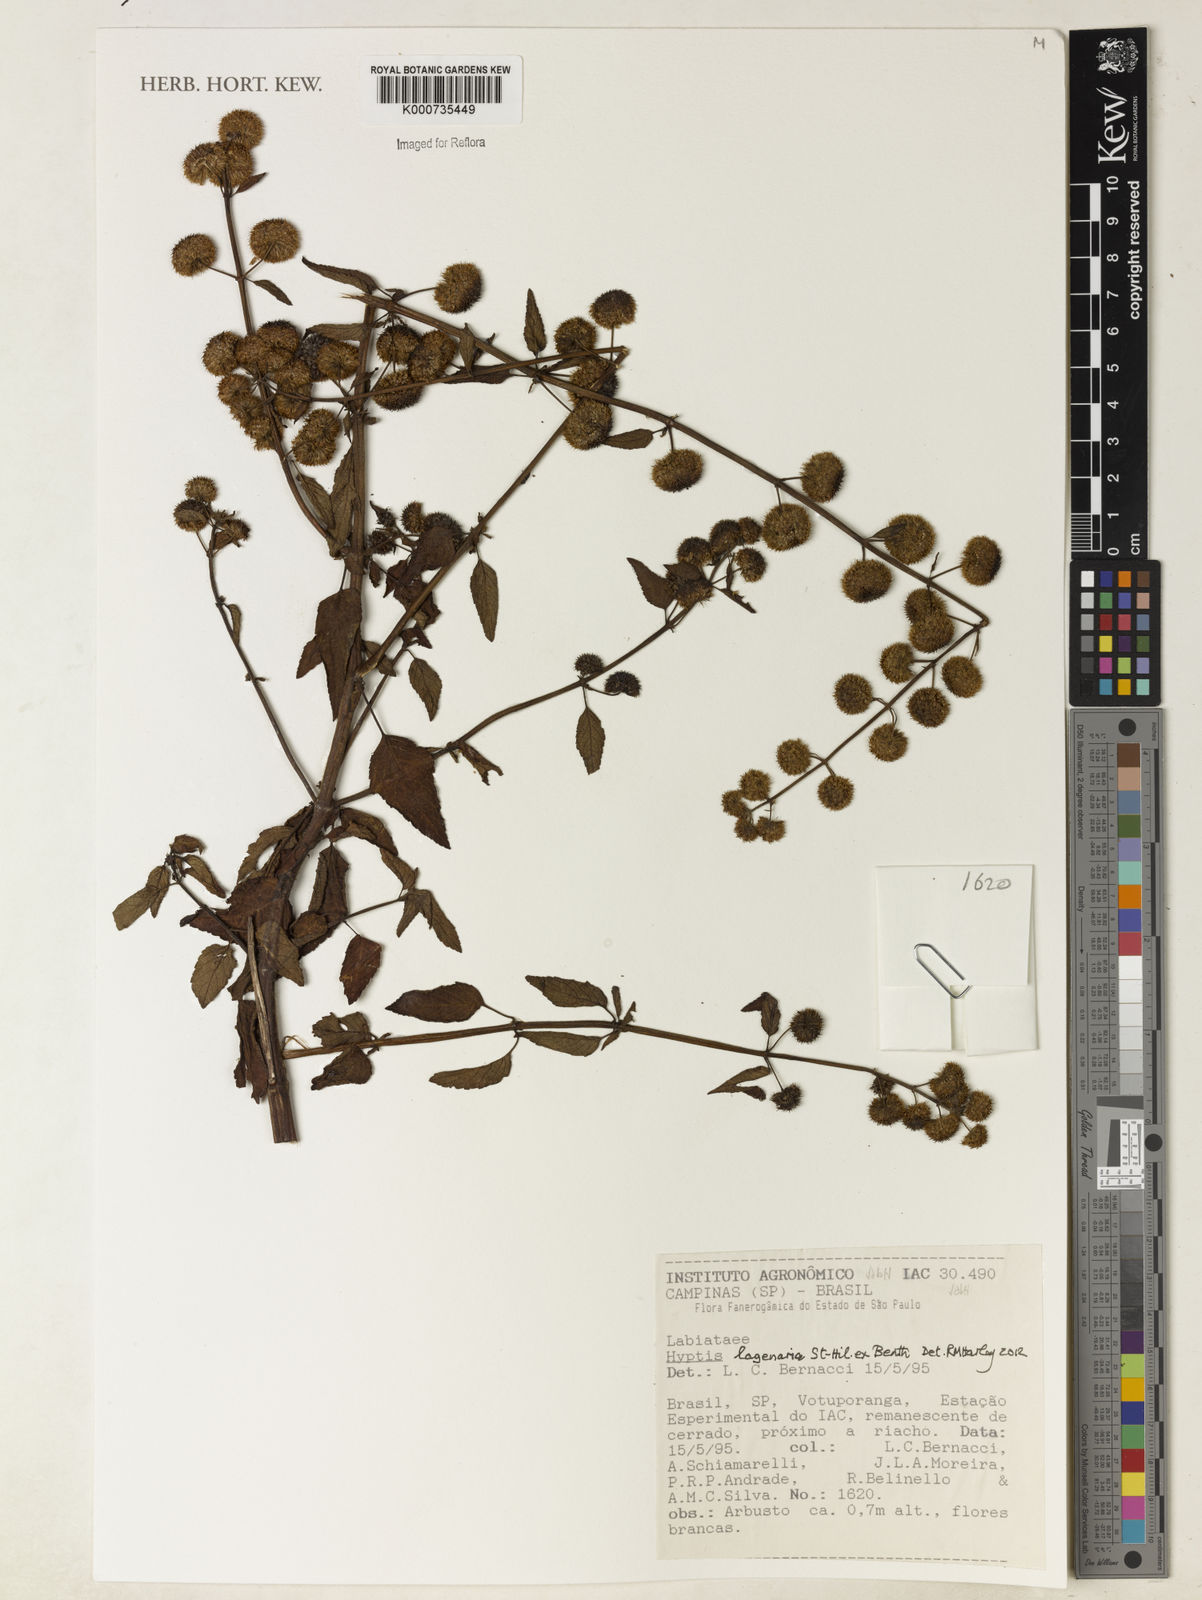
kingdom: Plantae
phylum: Tracheophyta
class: Magnoliopsida
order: Lamiales
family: Lamiaceae
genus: Hyptis
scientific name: Hyptis lagenaria
